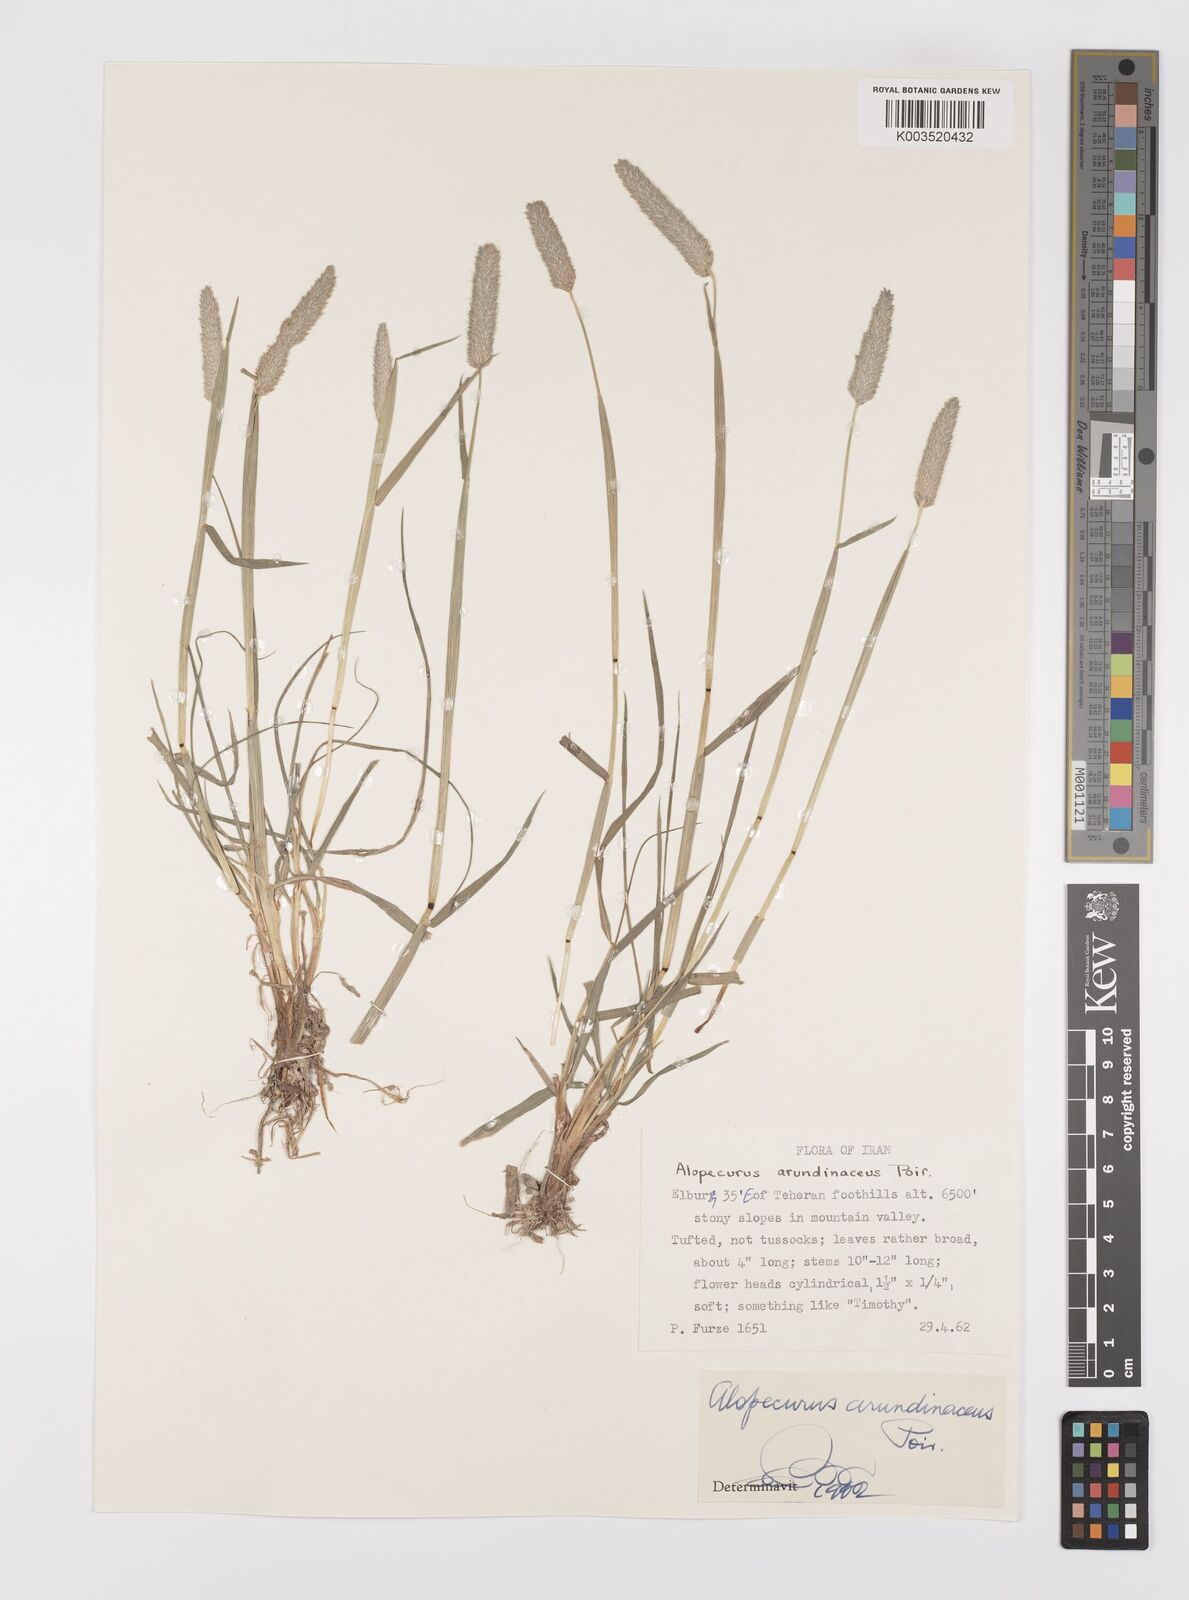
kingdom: Plantae
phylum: Tracheophyta
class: Liliopsida
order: Poales
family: Poaceae
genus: Alopecurus
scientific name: Alopecurus arundinaceus
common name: Creeping meadow foxtail
